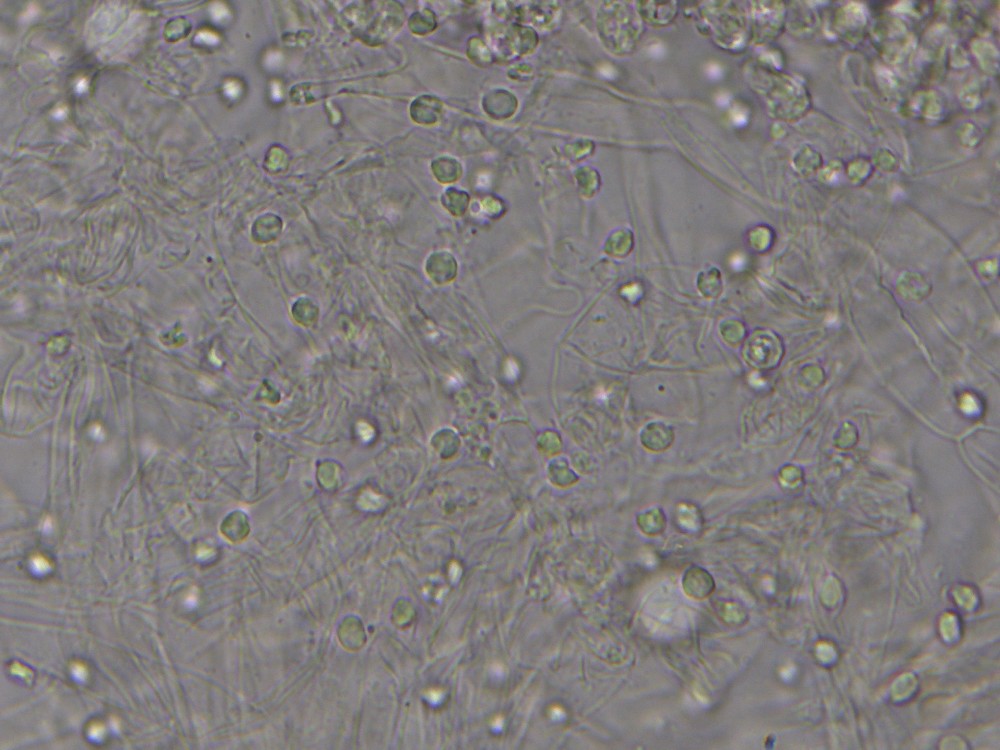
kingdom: Fungi
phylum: Basidiomycota
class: Agaricomycetes
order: Agaricales
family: Clavariaceae
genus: Camarophyllopsis
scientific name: Camarophyllopsis
